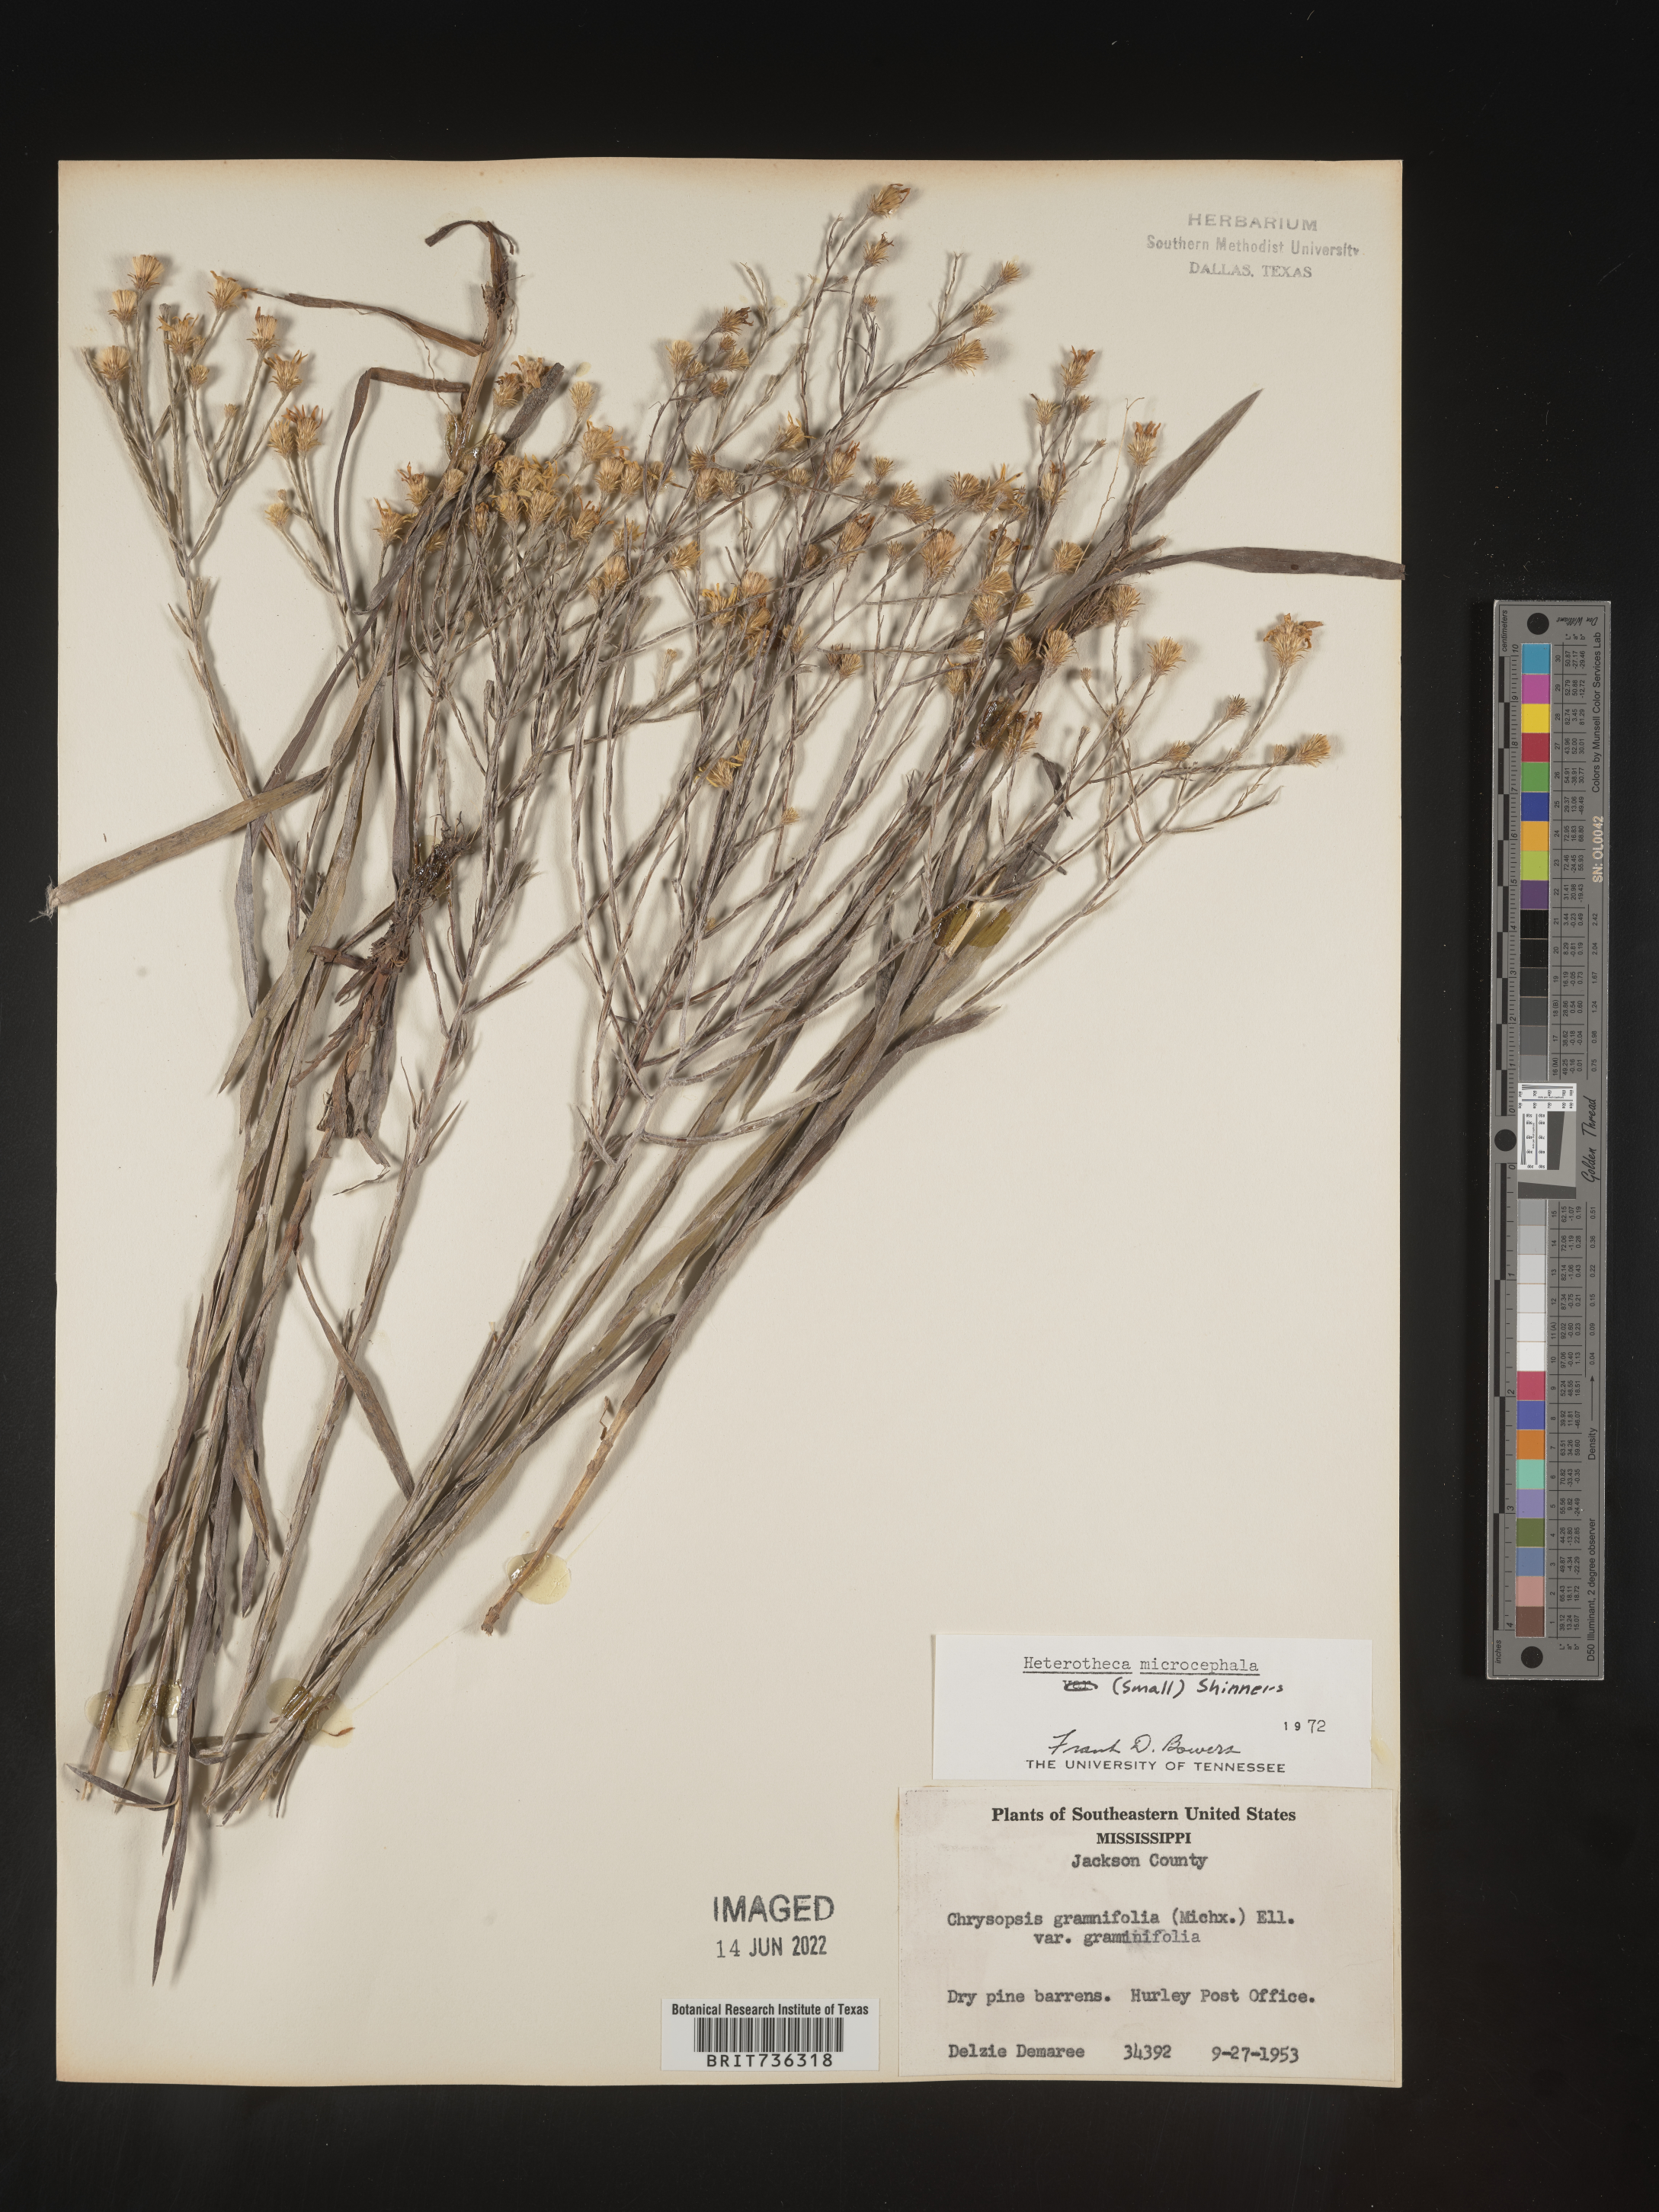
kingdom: Plantae
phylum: Tracheophyta
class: Magnoliopsida
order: Asterales
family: Asteraceae
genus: Pityopsis
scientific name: Pityopsis microcephala
